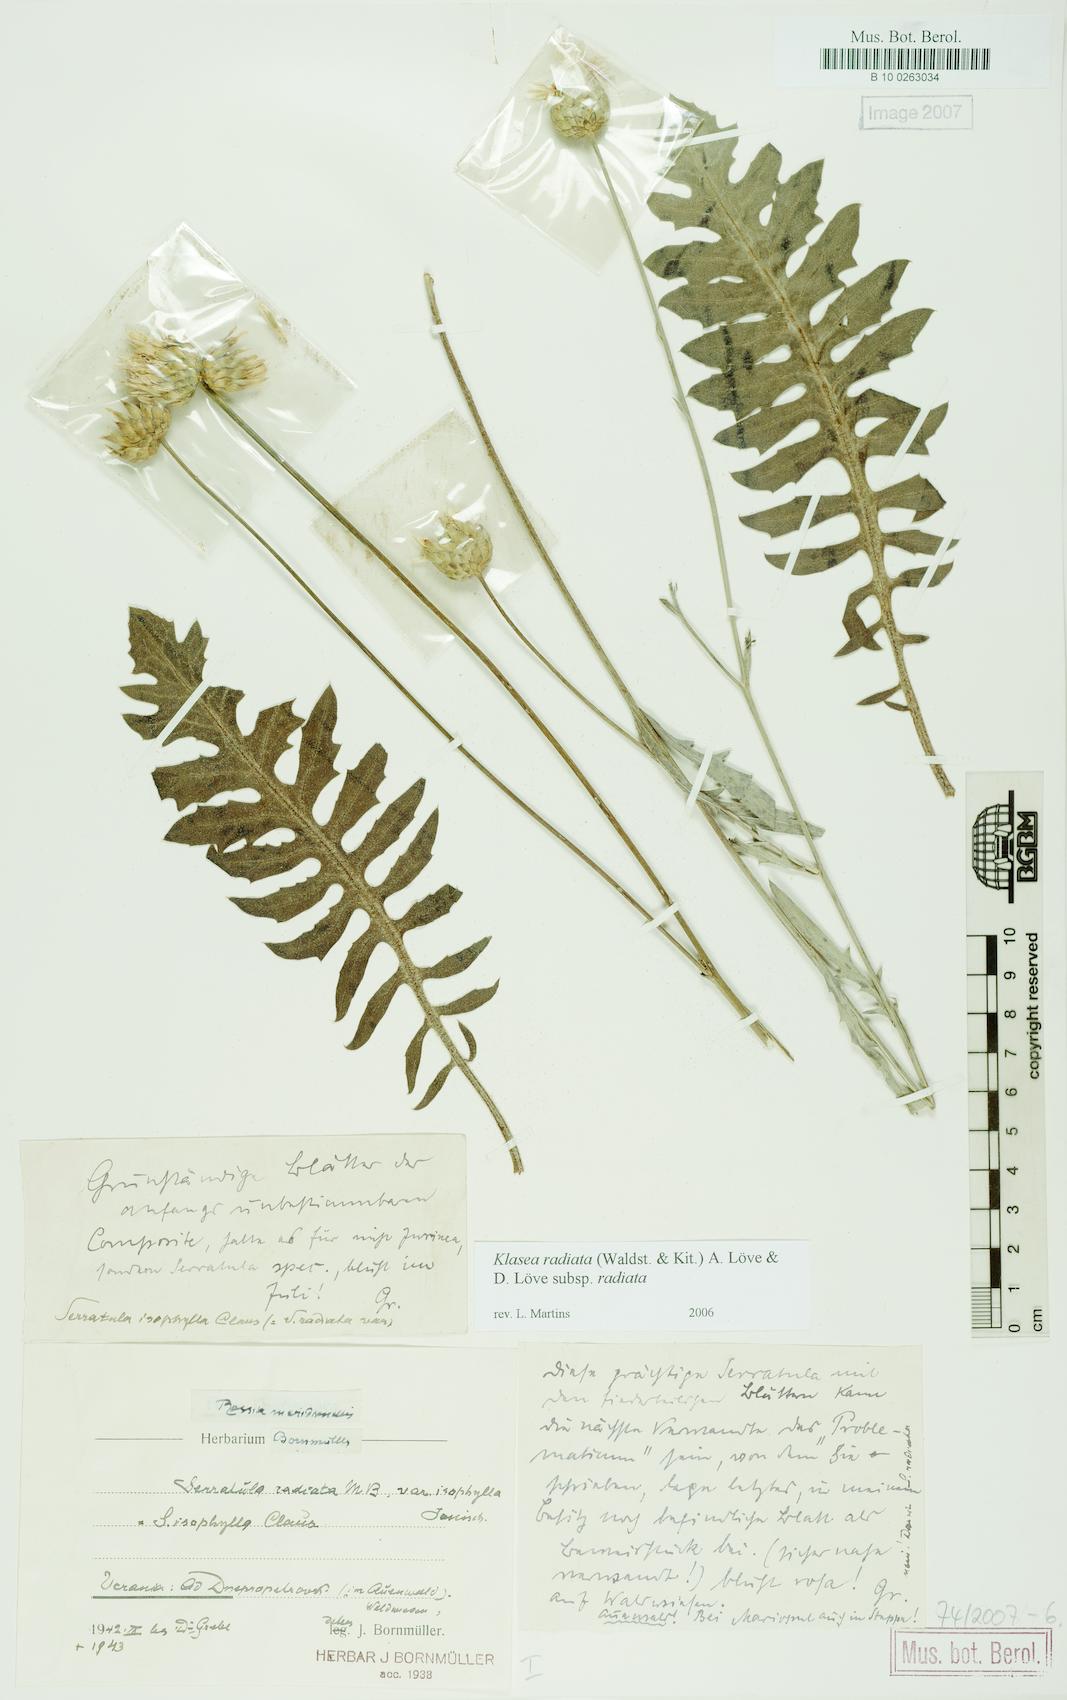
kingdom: Plantae
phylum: Tracheophyta
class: Magnoliopsida
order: Asterales
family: Asteraceae
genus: Klasea
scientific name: Klasea radiata
